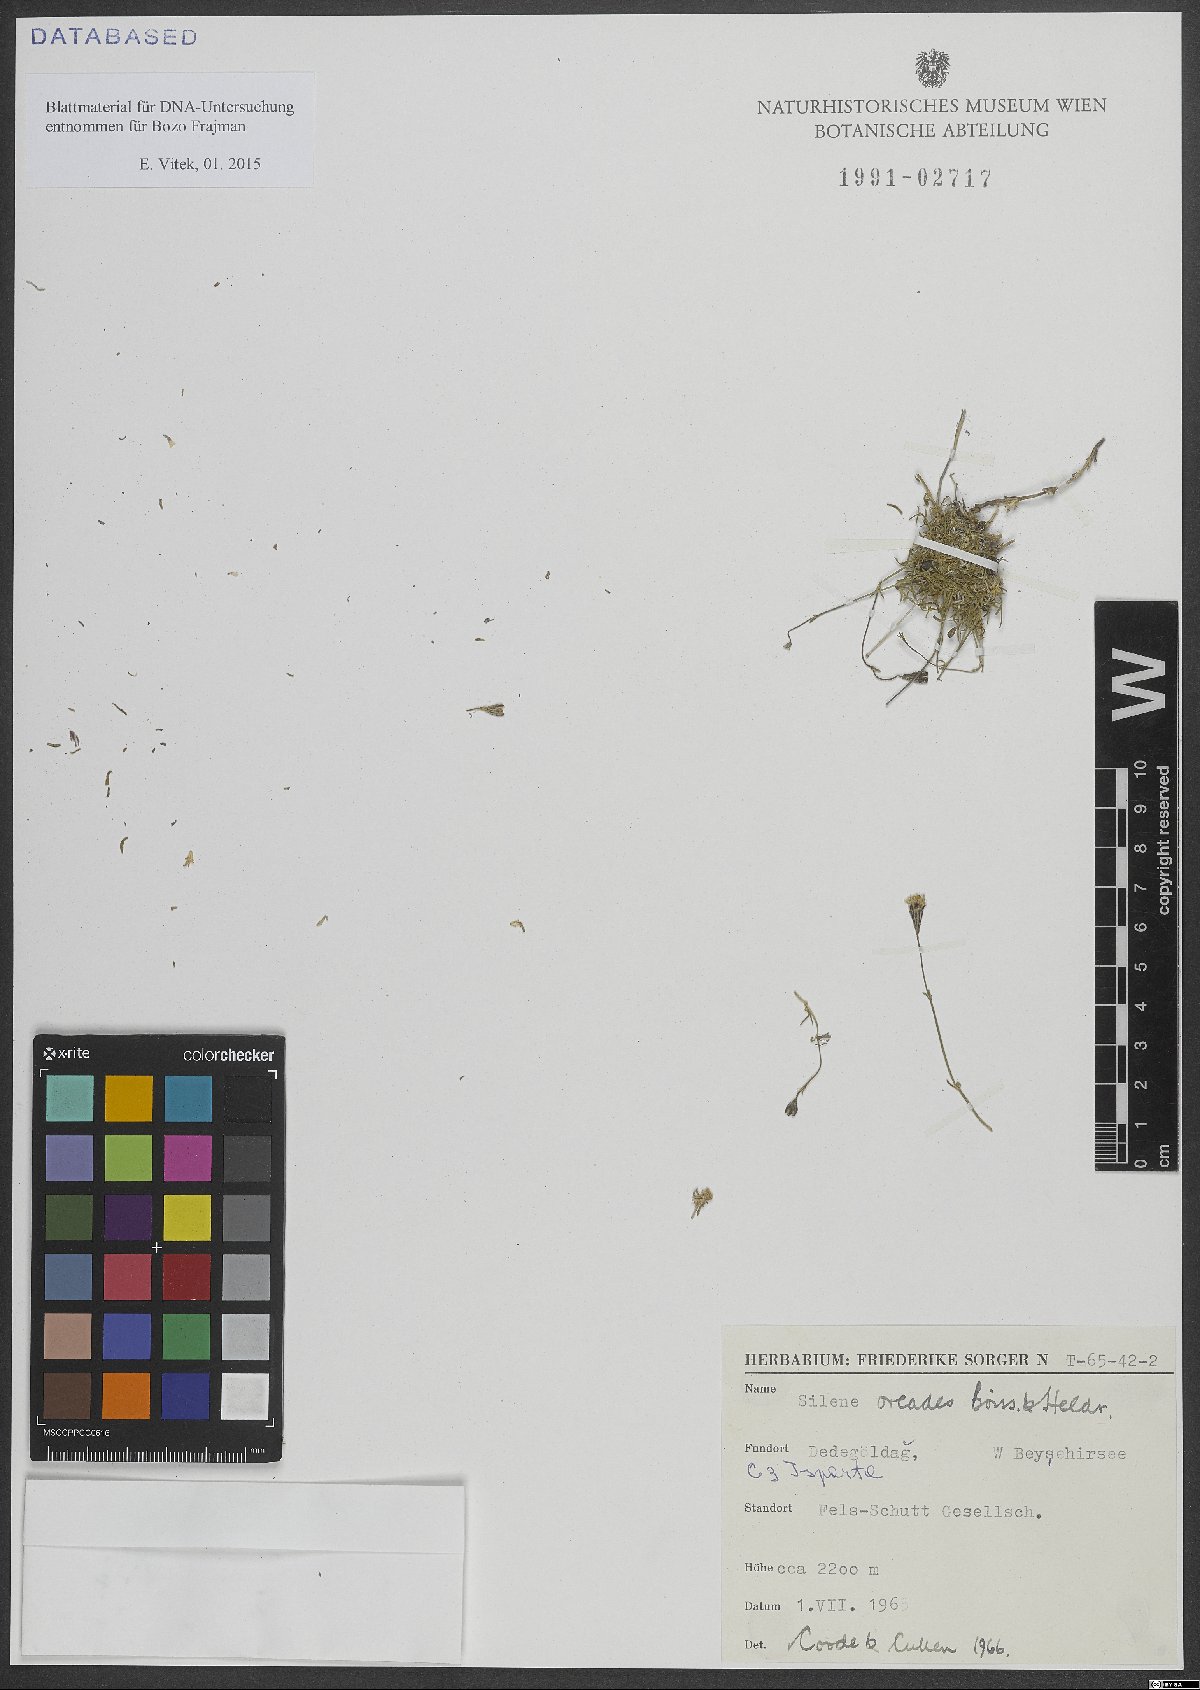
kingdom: Plantae
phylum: Tracheophyta
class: Magnoliopsida
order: Caryophyllales
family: Caryophyllaceae
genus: Silene
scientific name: Silene oreades
